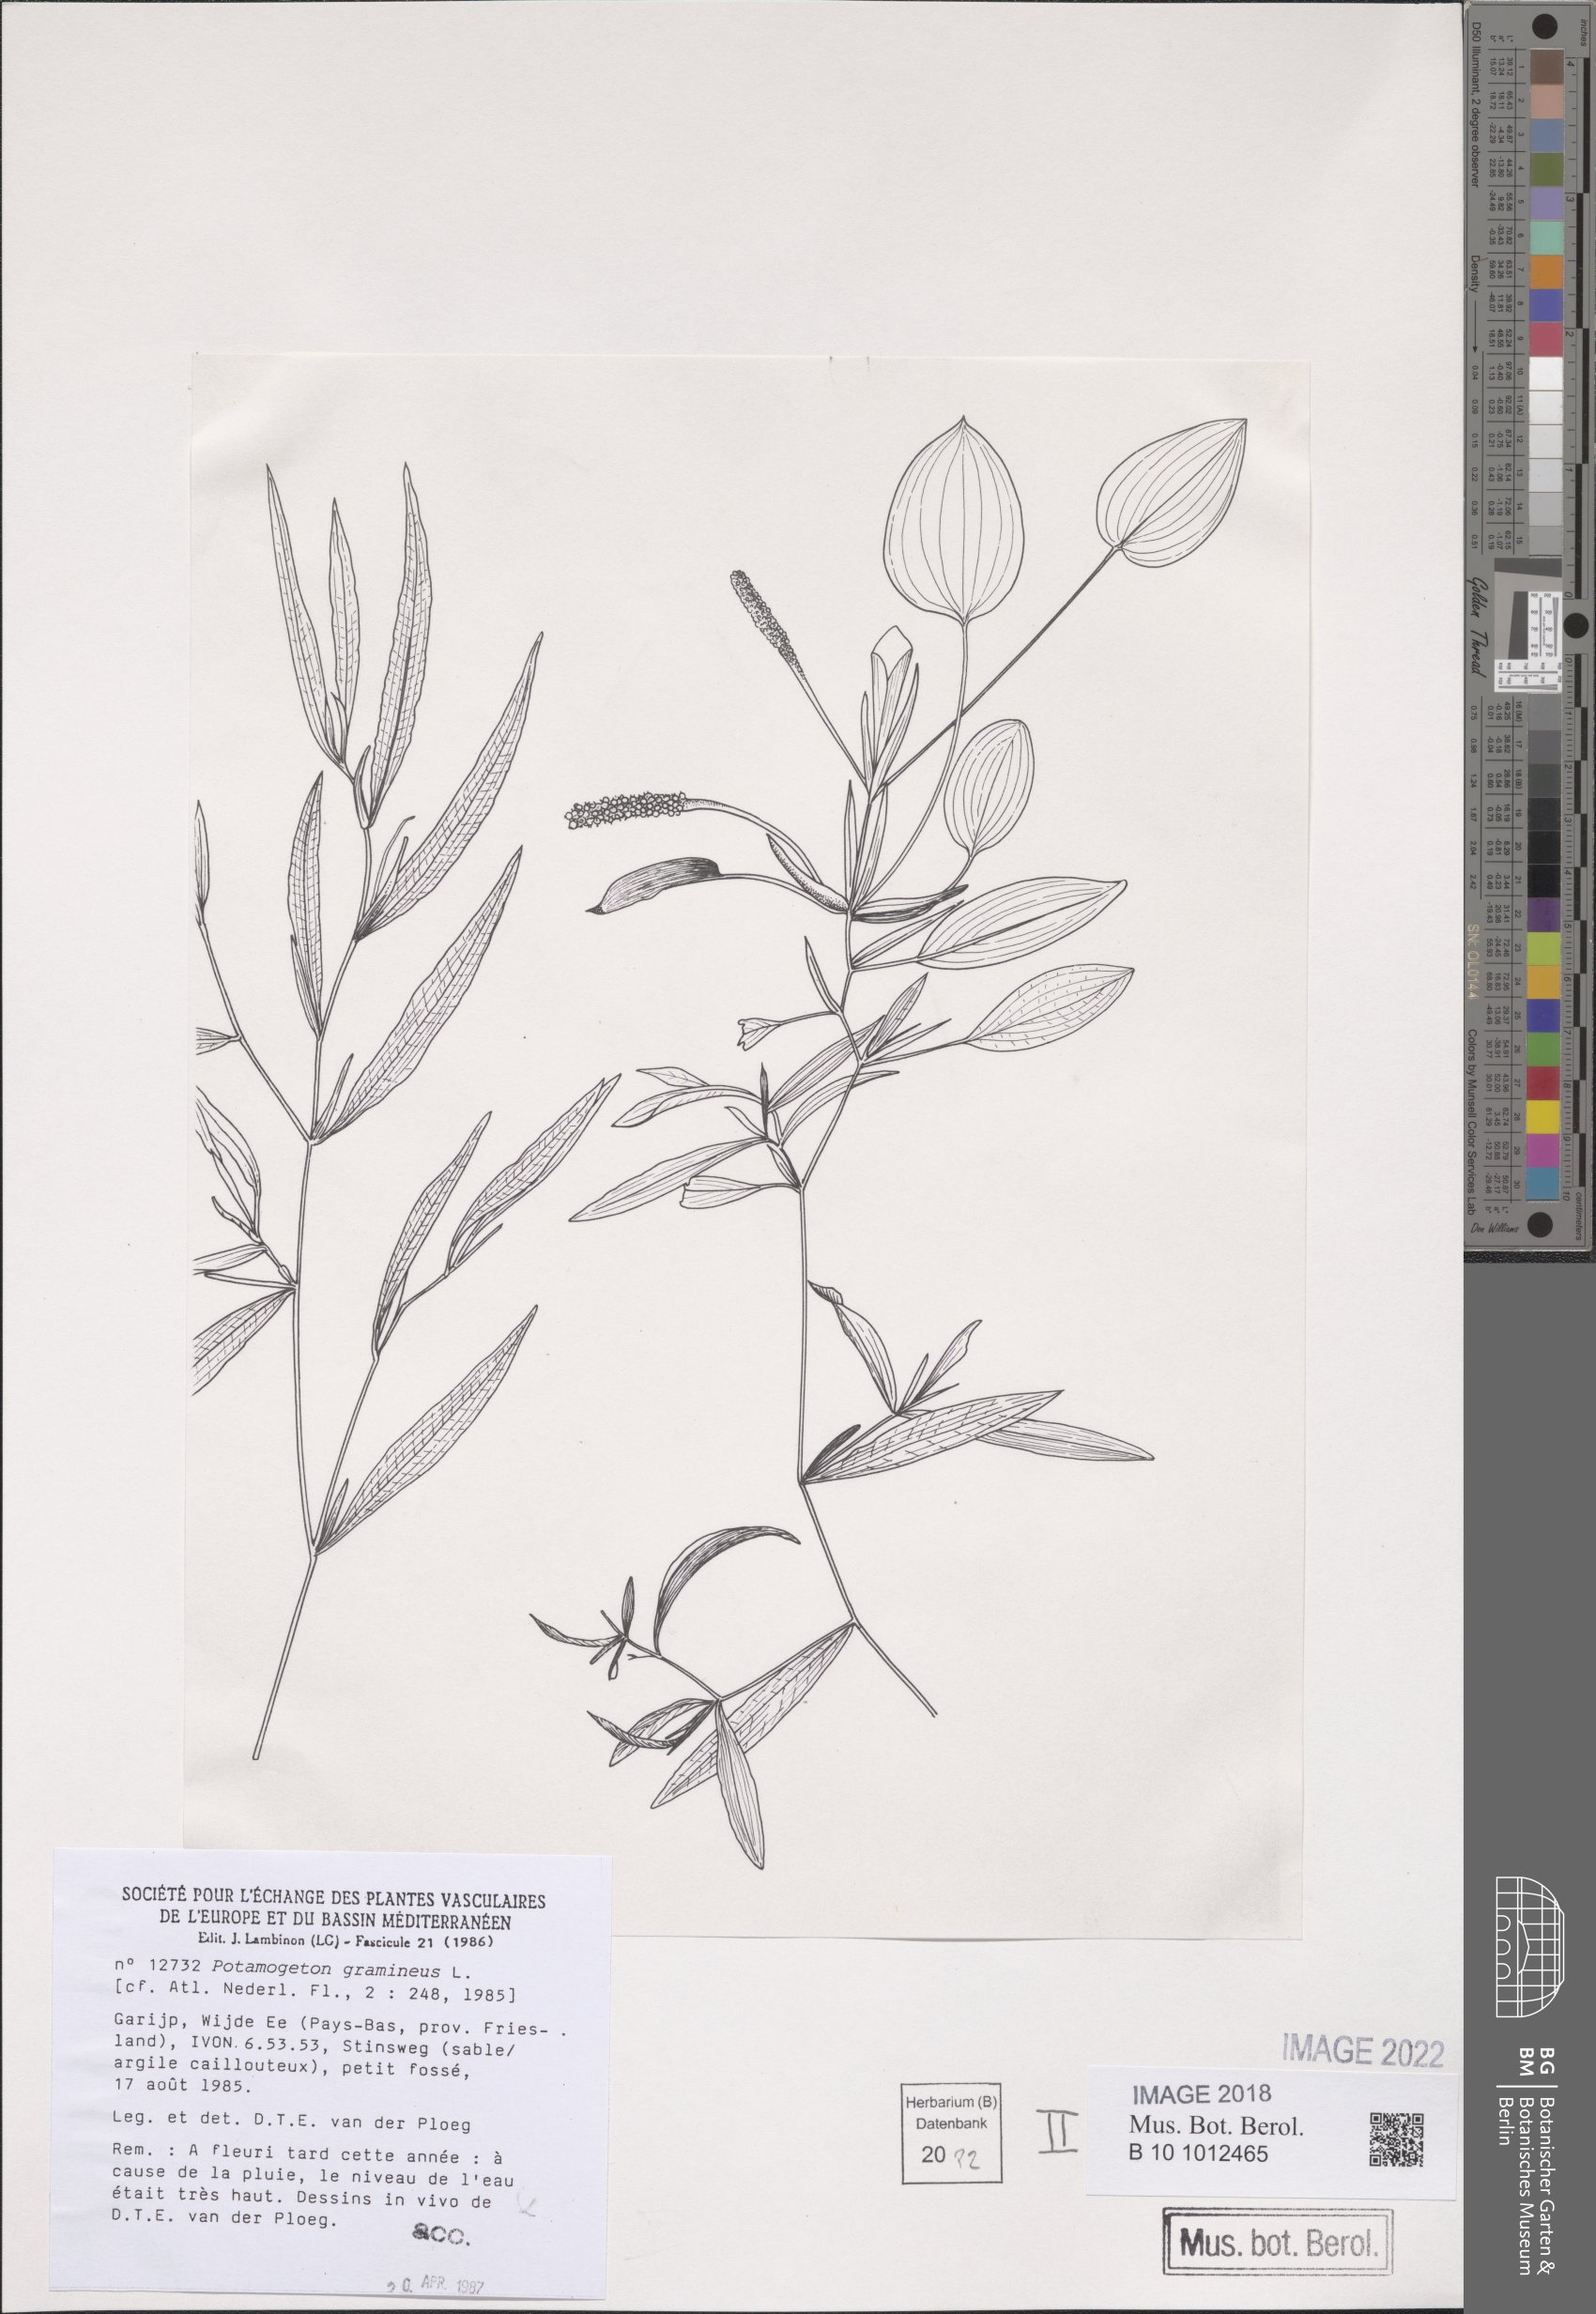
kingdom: Plantae
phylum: Tracheophyta
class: Liliopsida
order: Alismatales
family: Potamogetonaceae
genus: Potamogeton
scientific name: Potamogeton gramineus
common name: Various-leaved pondweed
